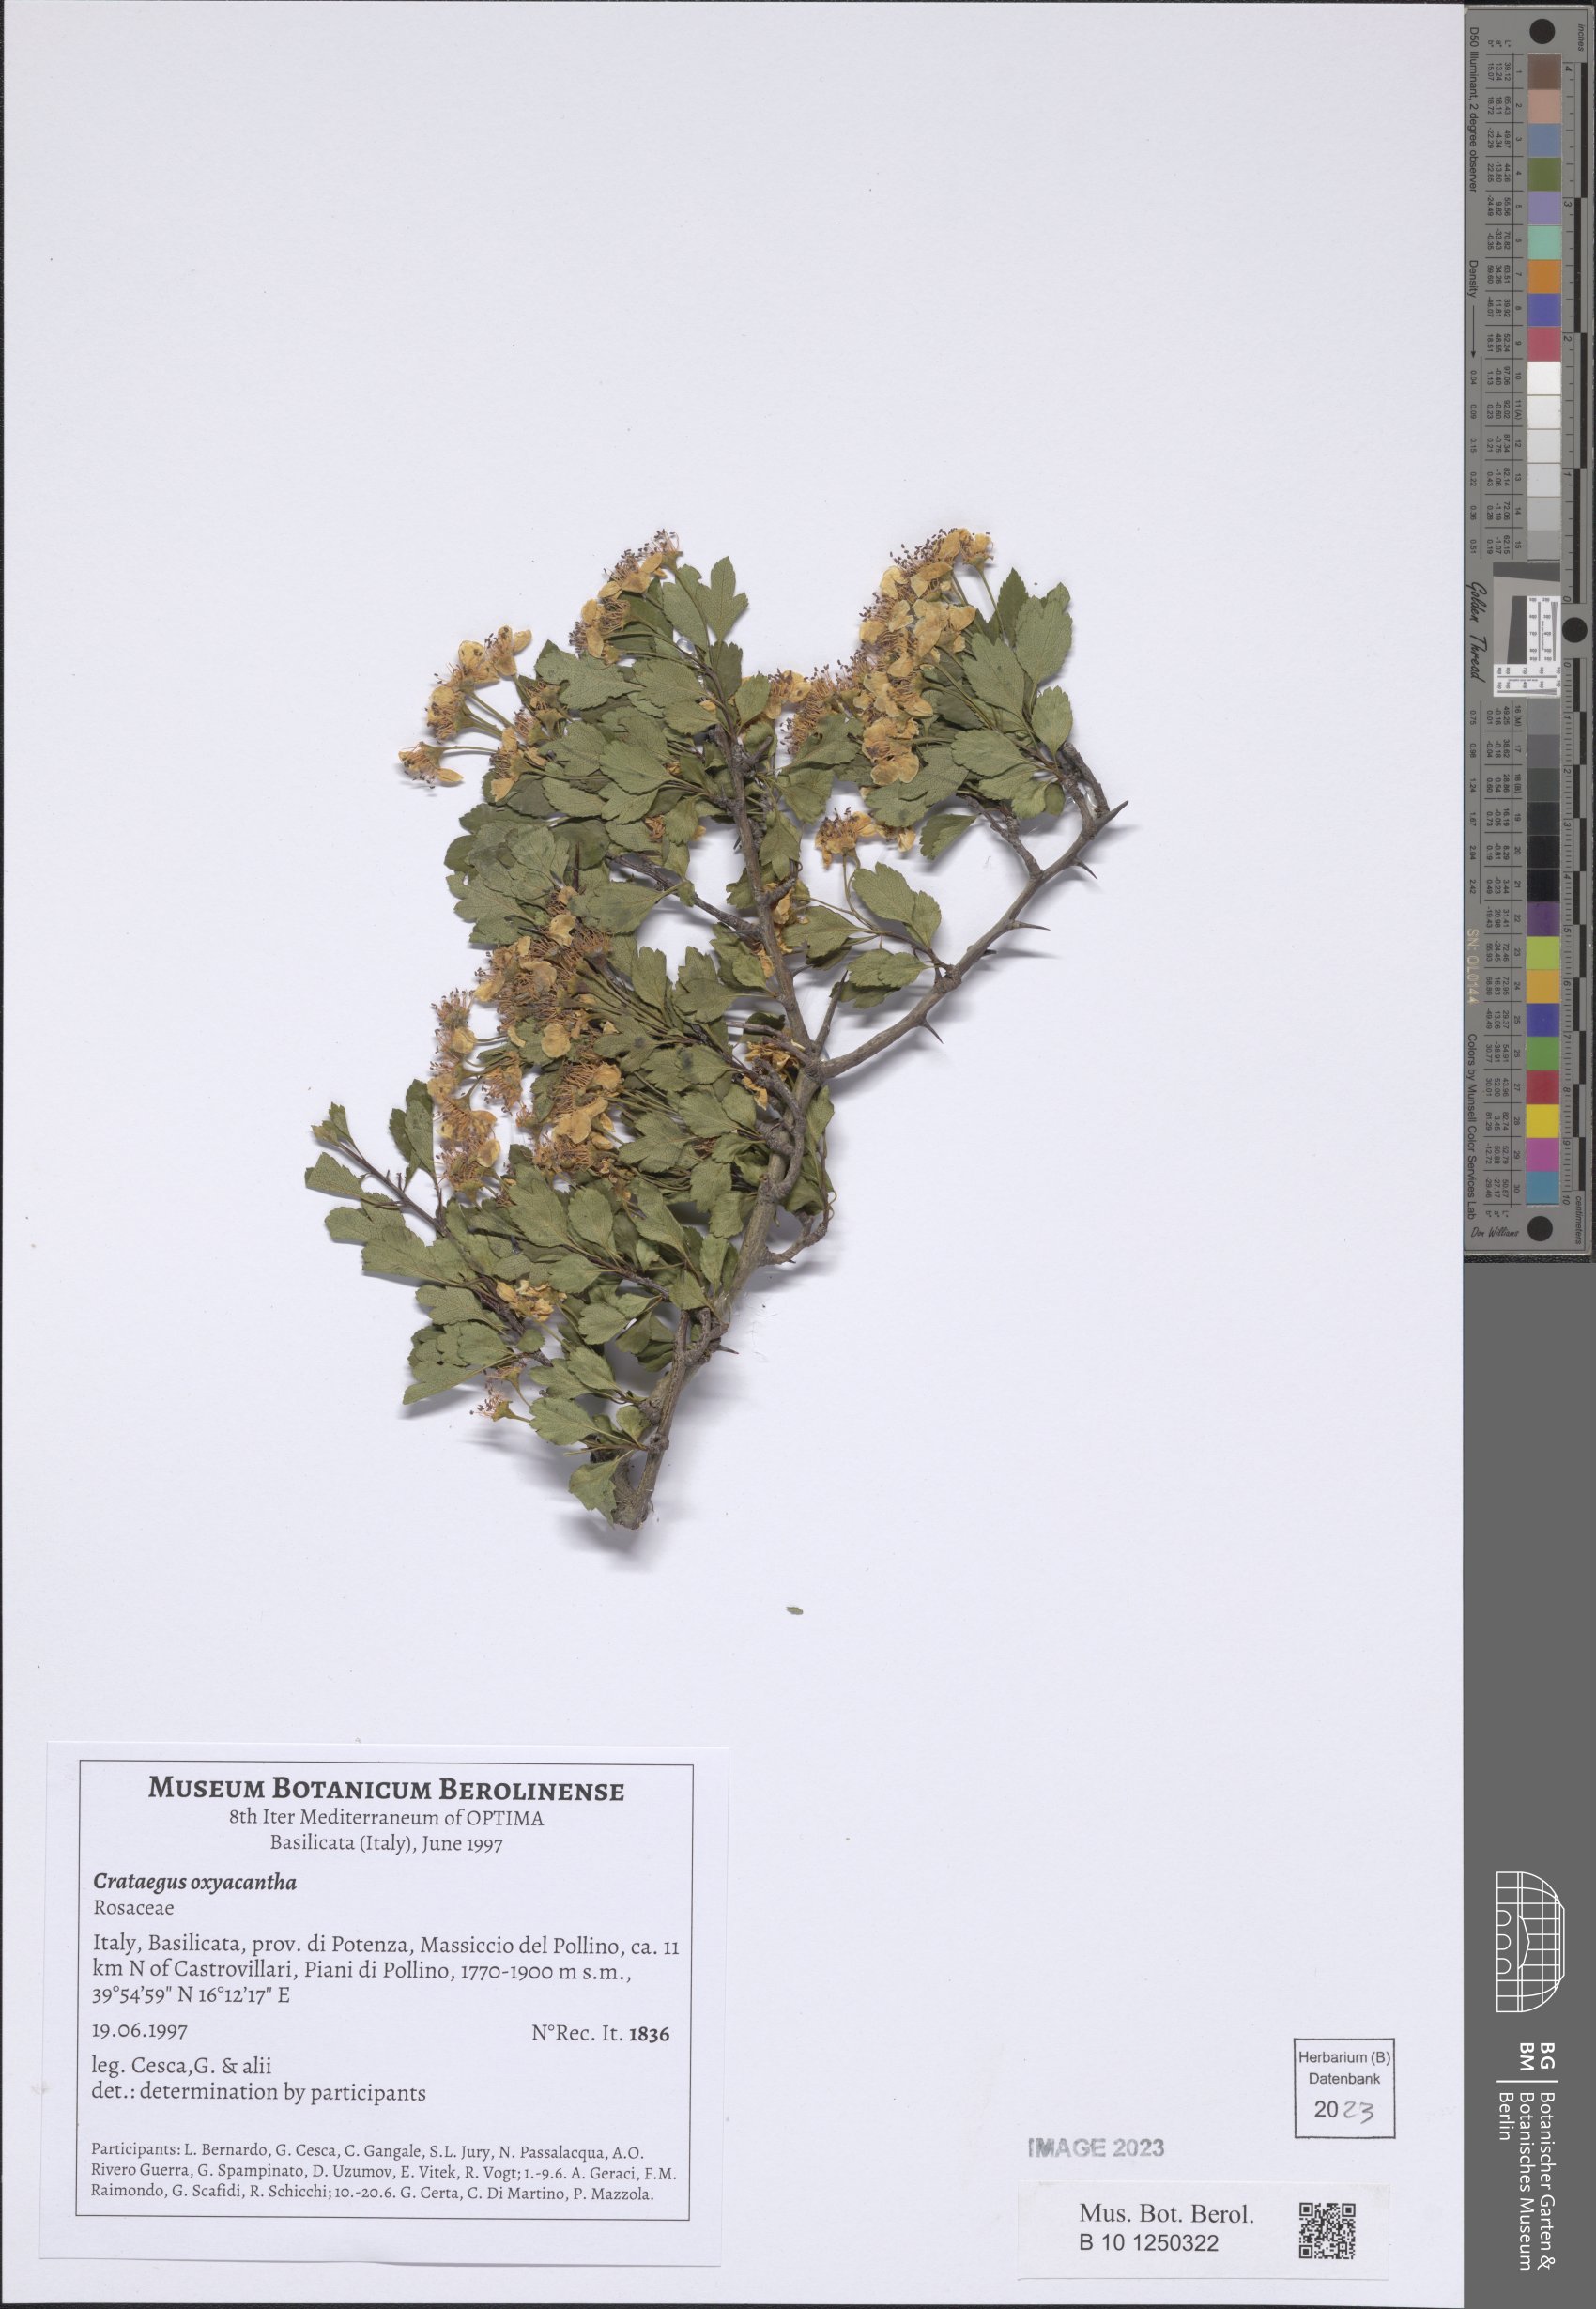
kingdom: Plantae
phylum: Tracheophyta
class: Magnoliopsida
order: Rosales
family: Rosaceae
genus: Crataegus
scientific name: Crataegus monogyna
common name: Hawthorn
